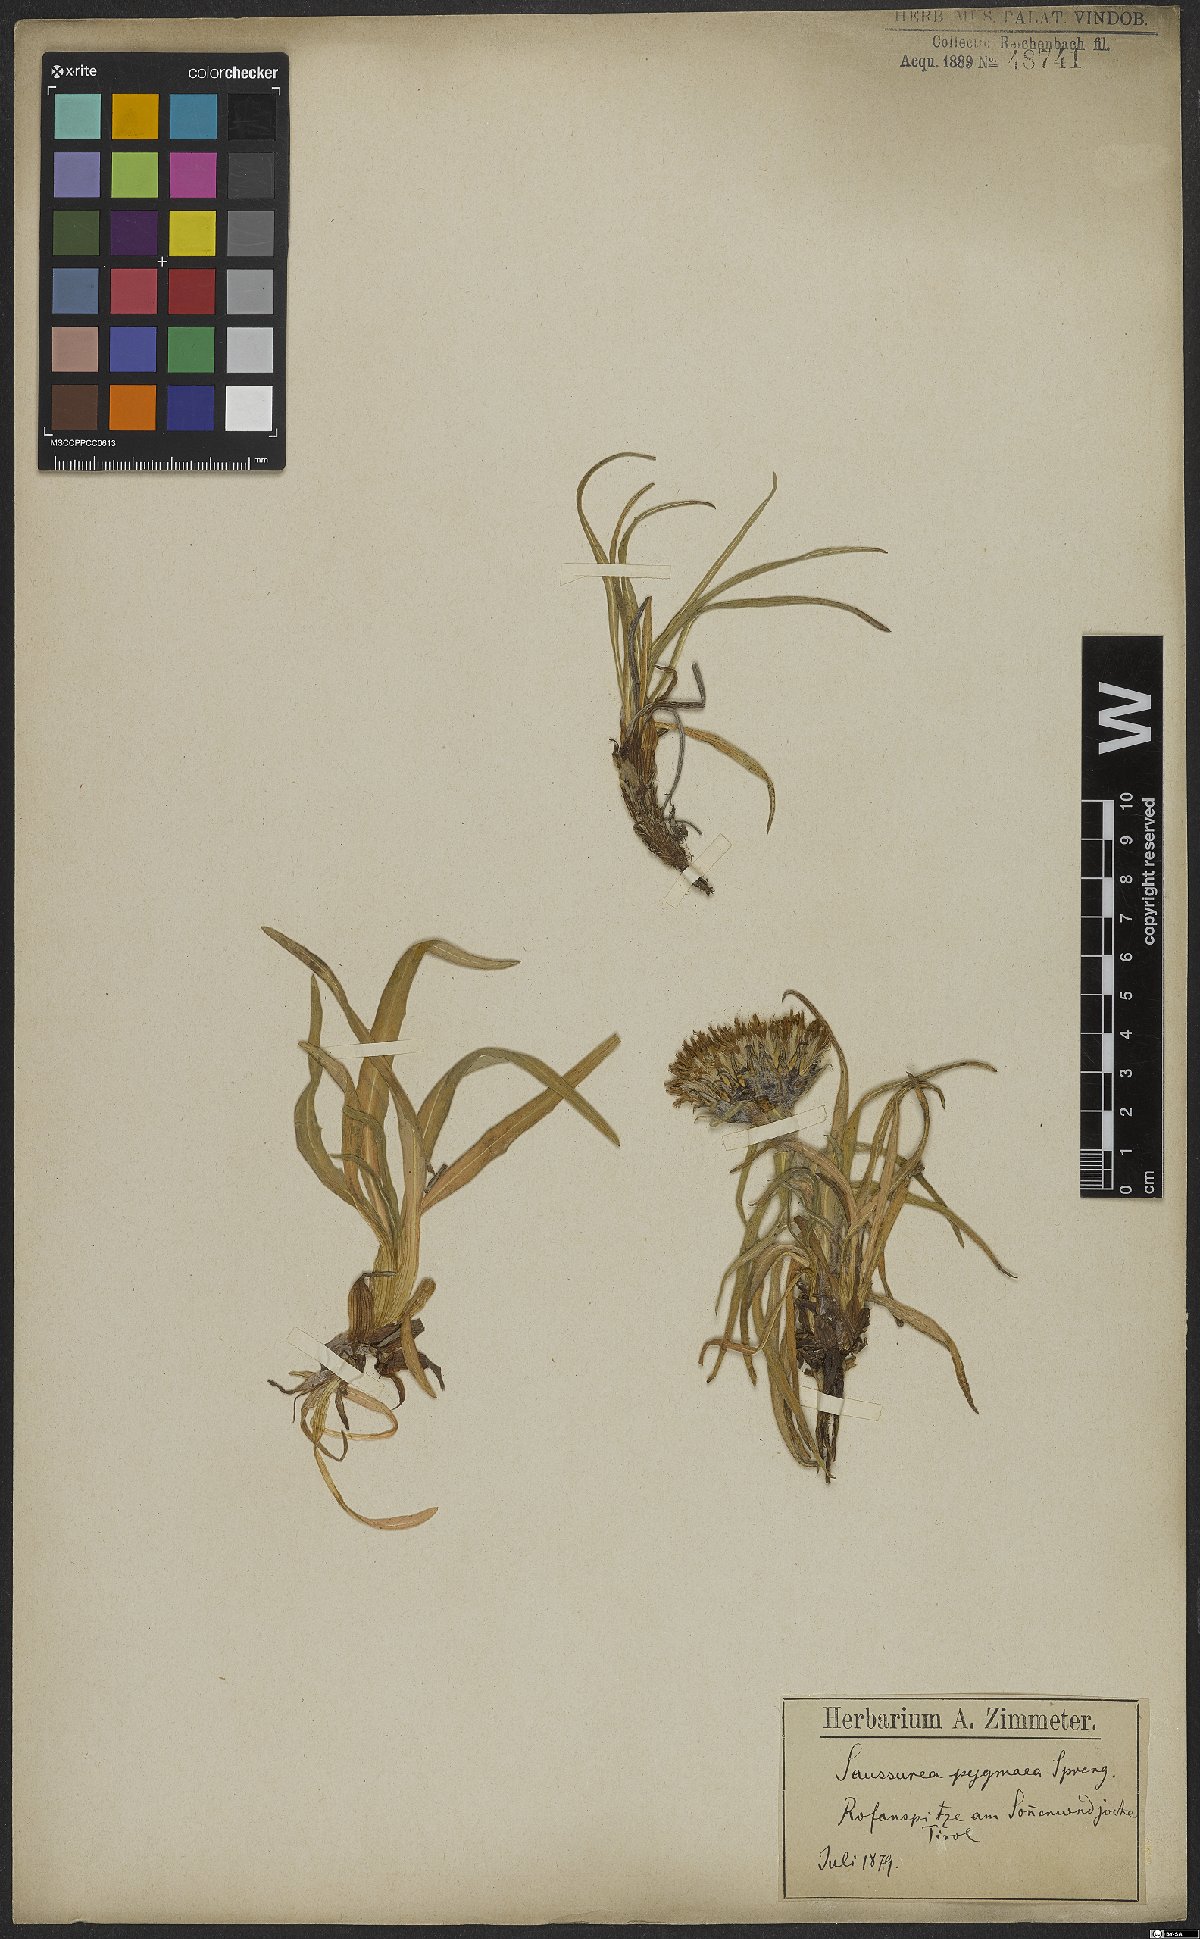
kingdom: Plantae
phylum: Tracheophyta
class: Magnoliopsida
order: Asterales
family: Asteraceae
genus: Saussurea
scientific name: Saussurea pygmaea
